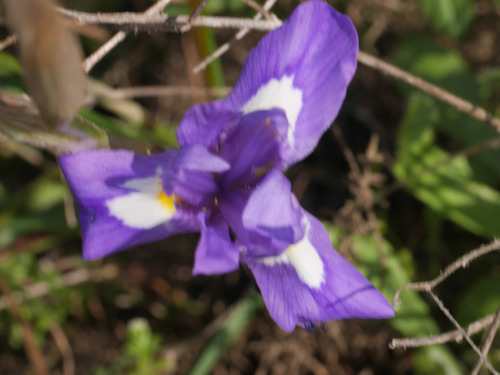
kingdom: Plantae
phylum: Tracheophyta
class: Liliopsida
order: Asparagales
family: Iridaceae
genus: Moraea
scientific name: Moraea sisyrinchium
